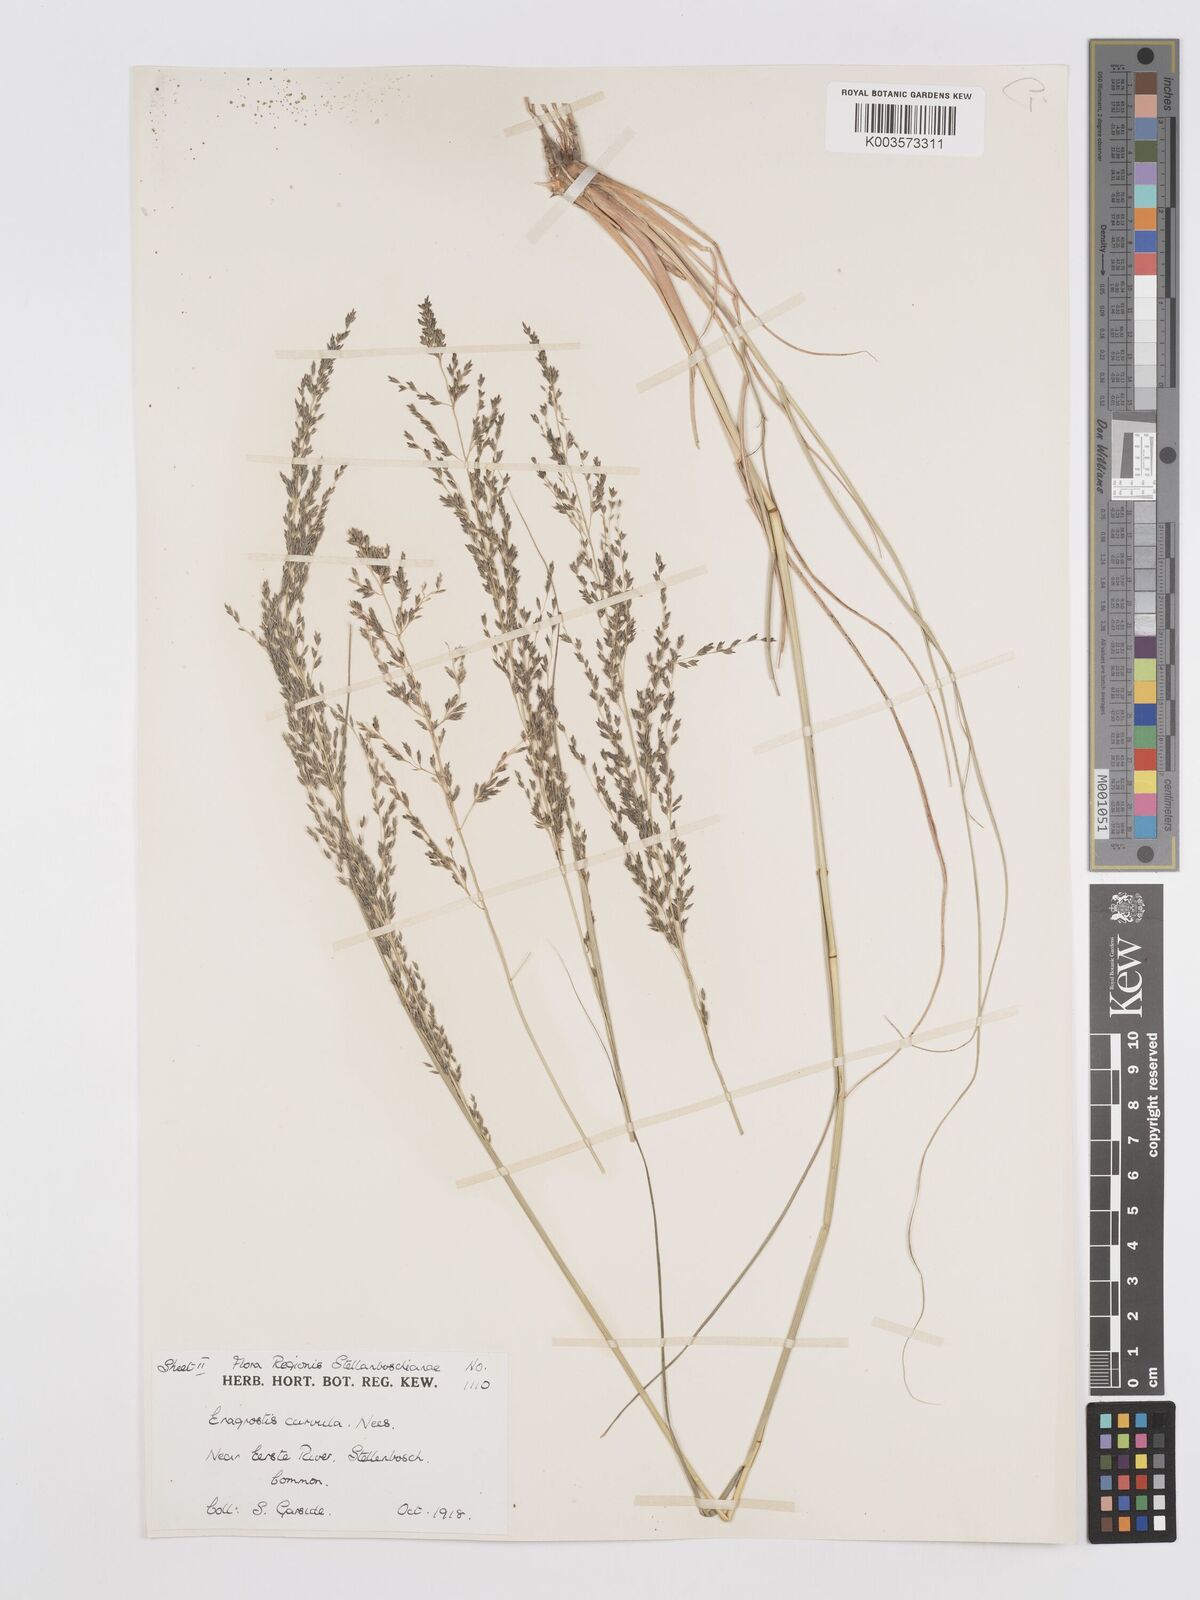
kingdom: Plantae
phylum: Tracheophyta
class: Liliopsida
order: Poales
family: Poaceae
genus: Eragrostis
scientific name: Eragrostis curvula
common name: African love-grass
